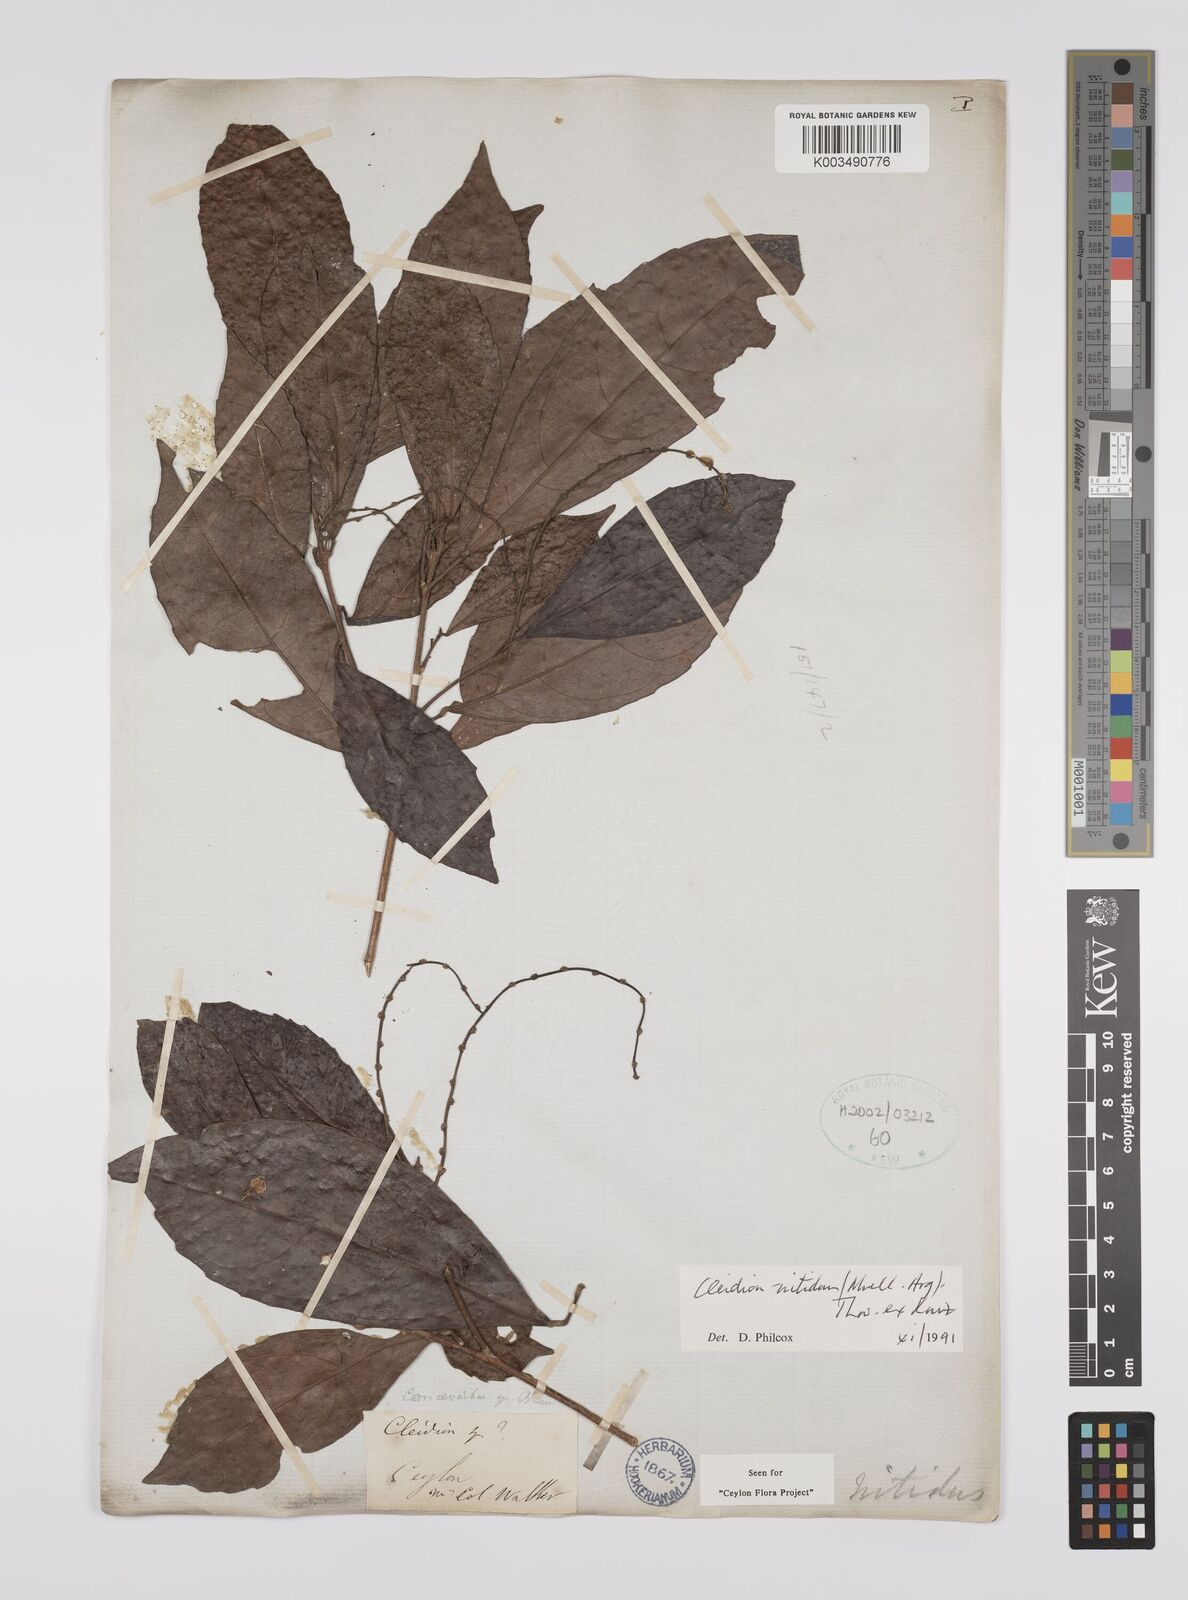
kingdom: Plantae
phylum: Tracheophyta
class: Magnoliopsida
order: Malpighiales
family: Euphorbiaceae
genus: Cleidion
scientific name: Cleidion nitidum
